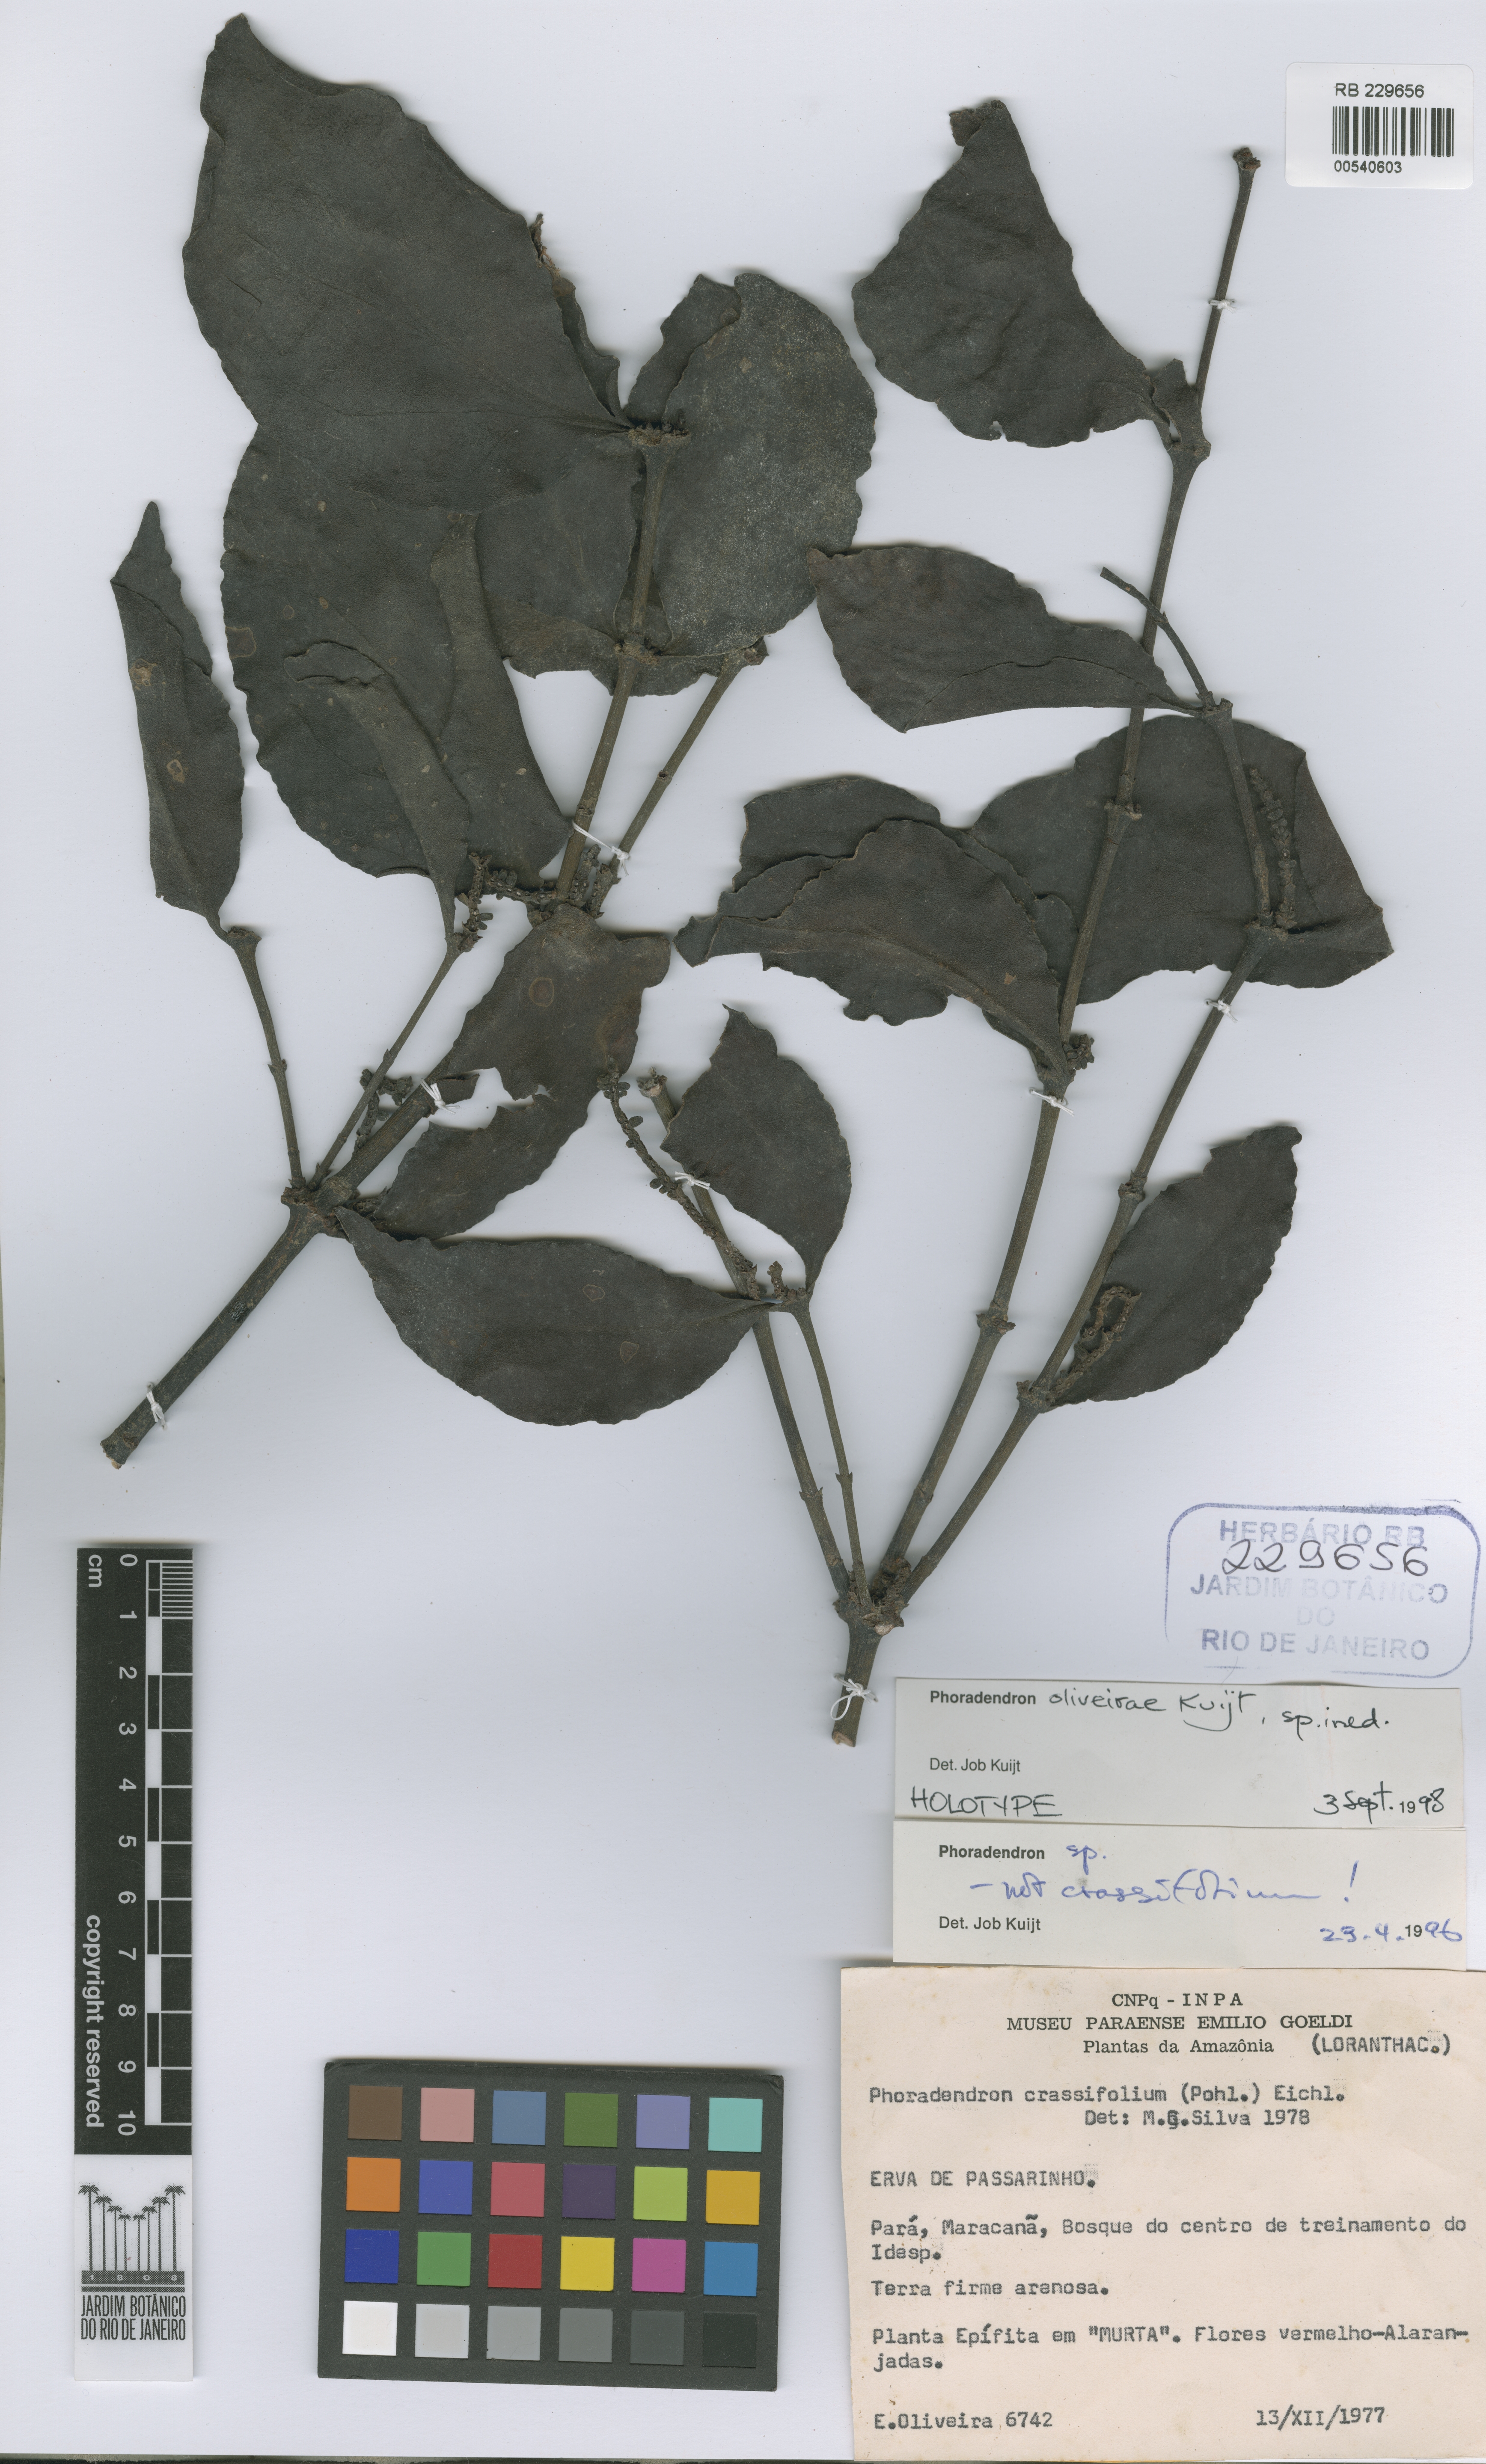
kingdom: Plantae
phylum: Tracheophyta
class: Magnoliopsida
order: Santalales
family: Viscaceae
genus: Phoradendron
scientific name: Phoradendron oliveirae
